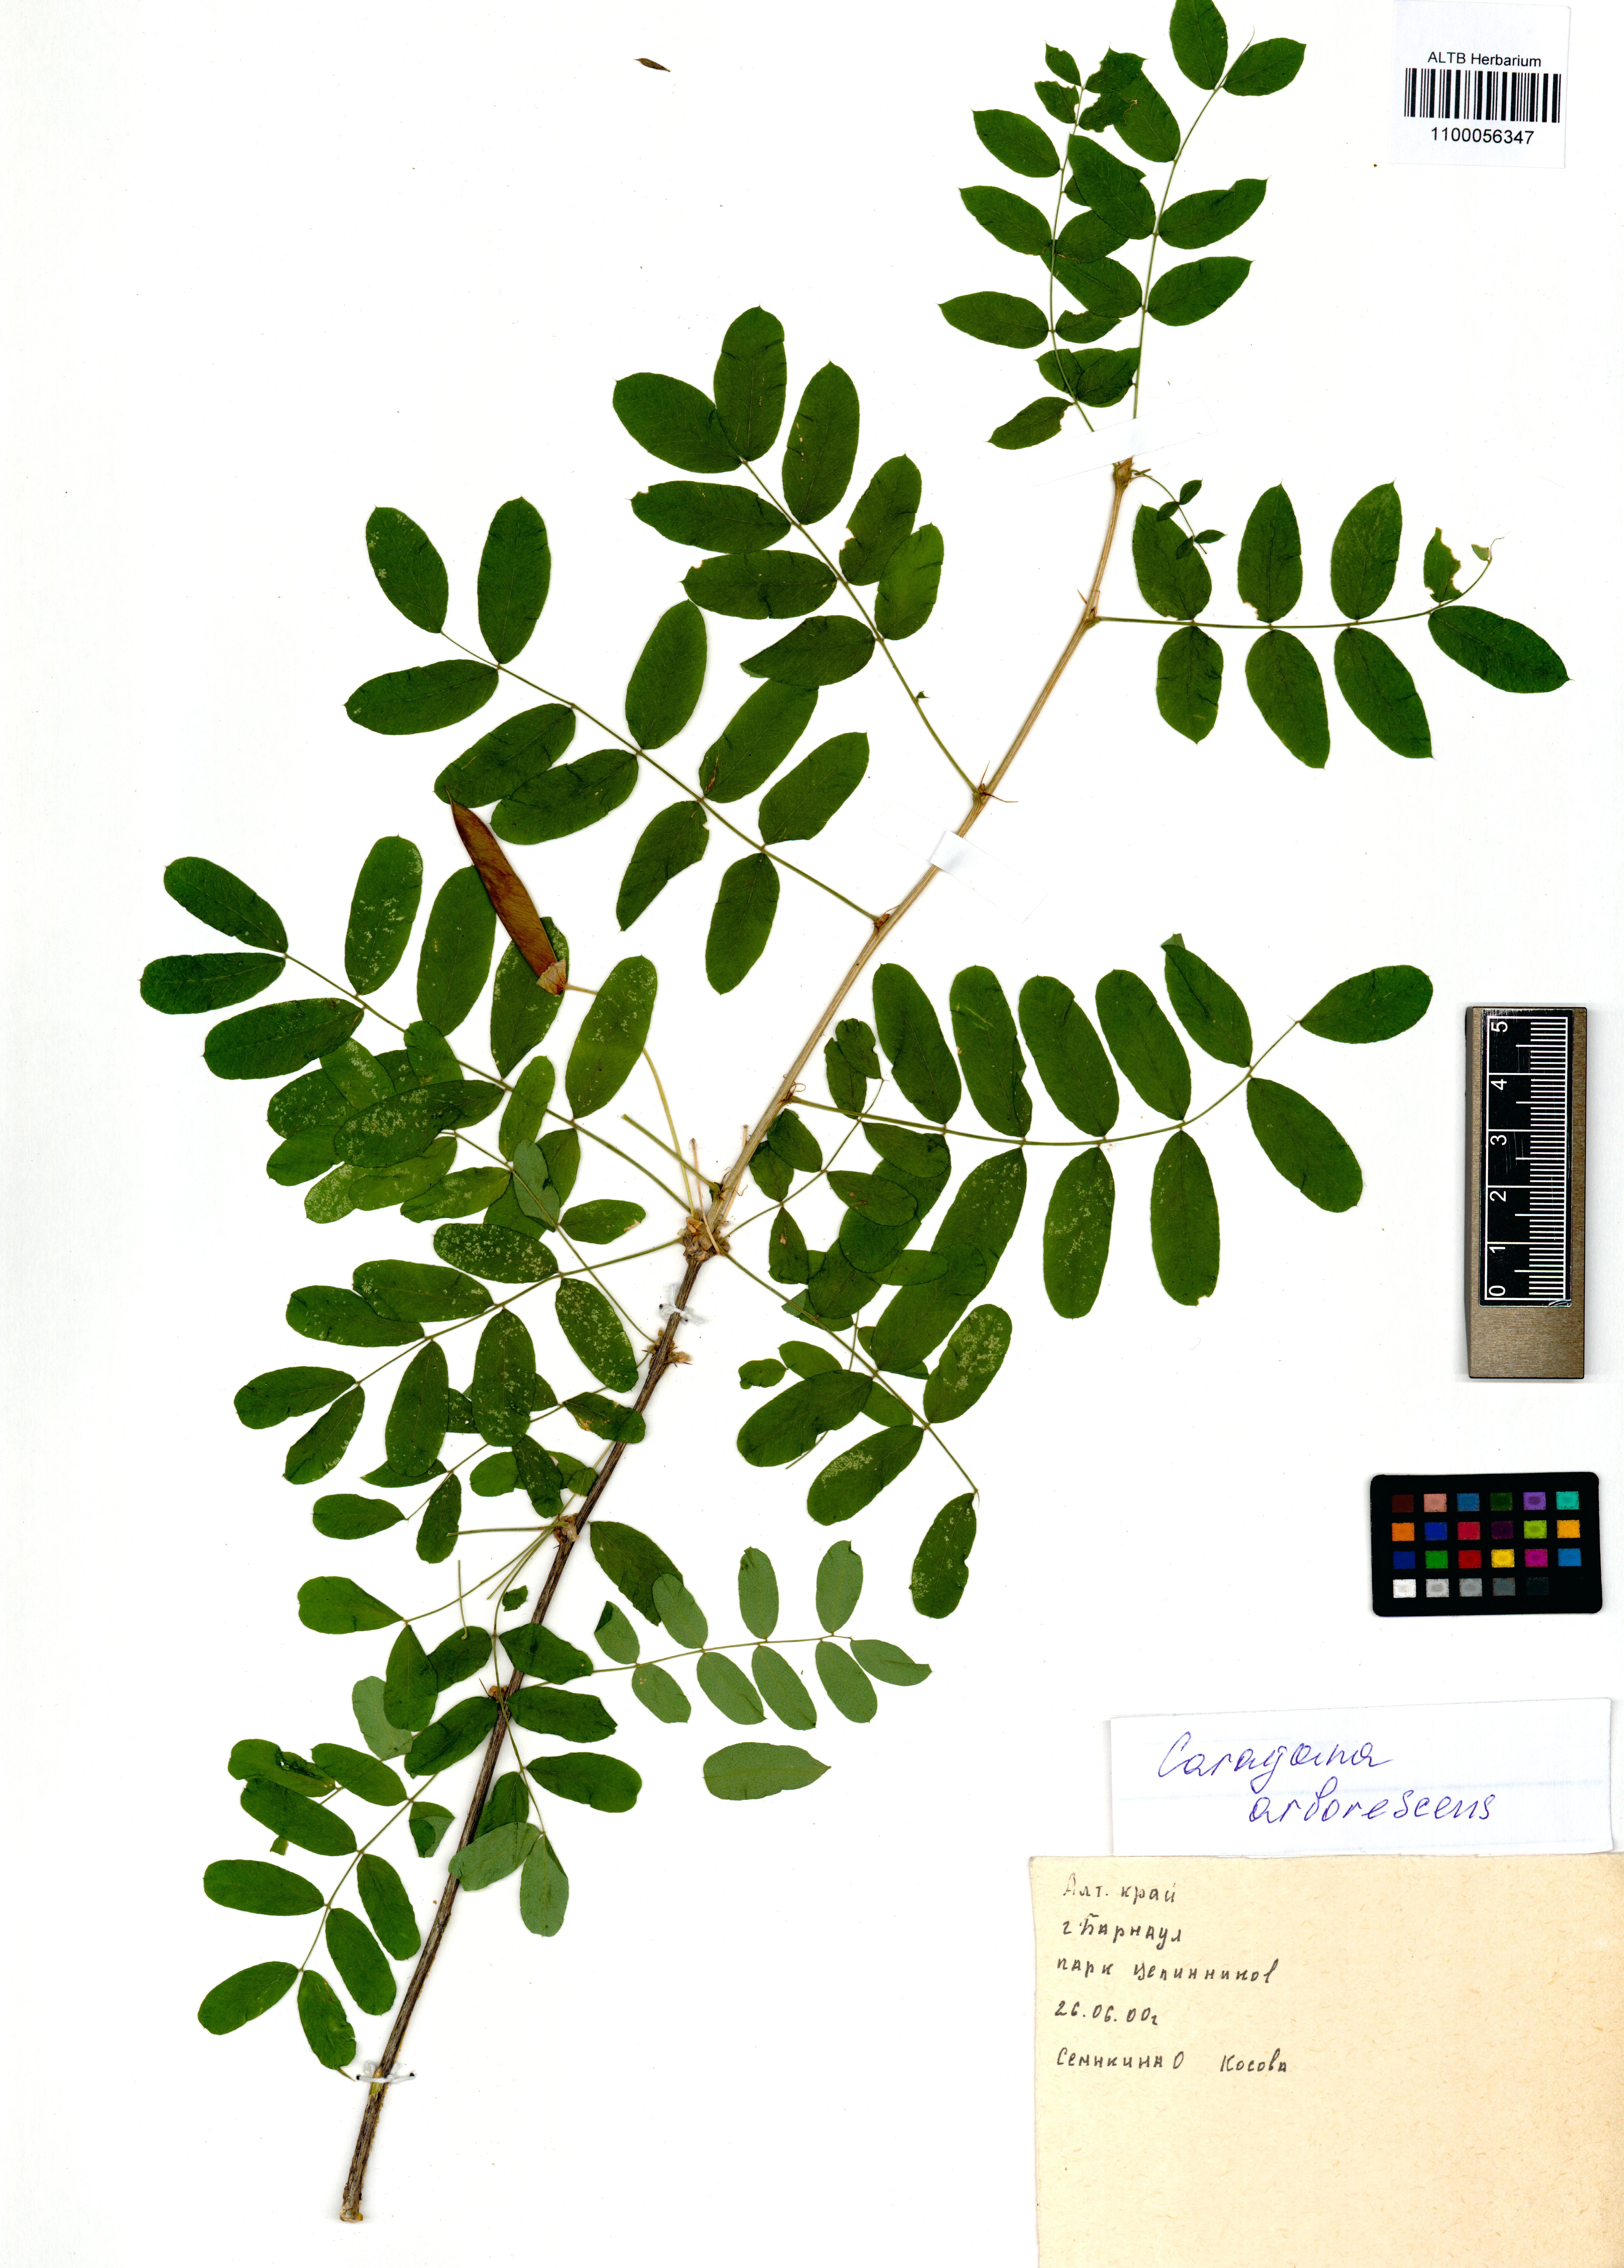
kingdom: Plantae
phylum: Tracheophyta
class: Magnoliopsida
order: Fabales
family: Fabaceae
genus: Caragana
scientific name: Caragana arborescens
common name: Siberian peashrub
